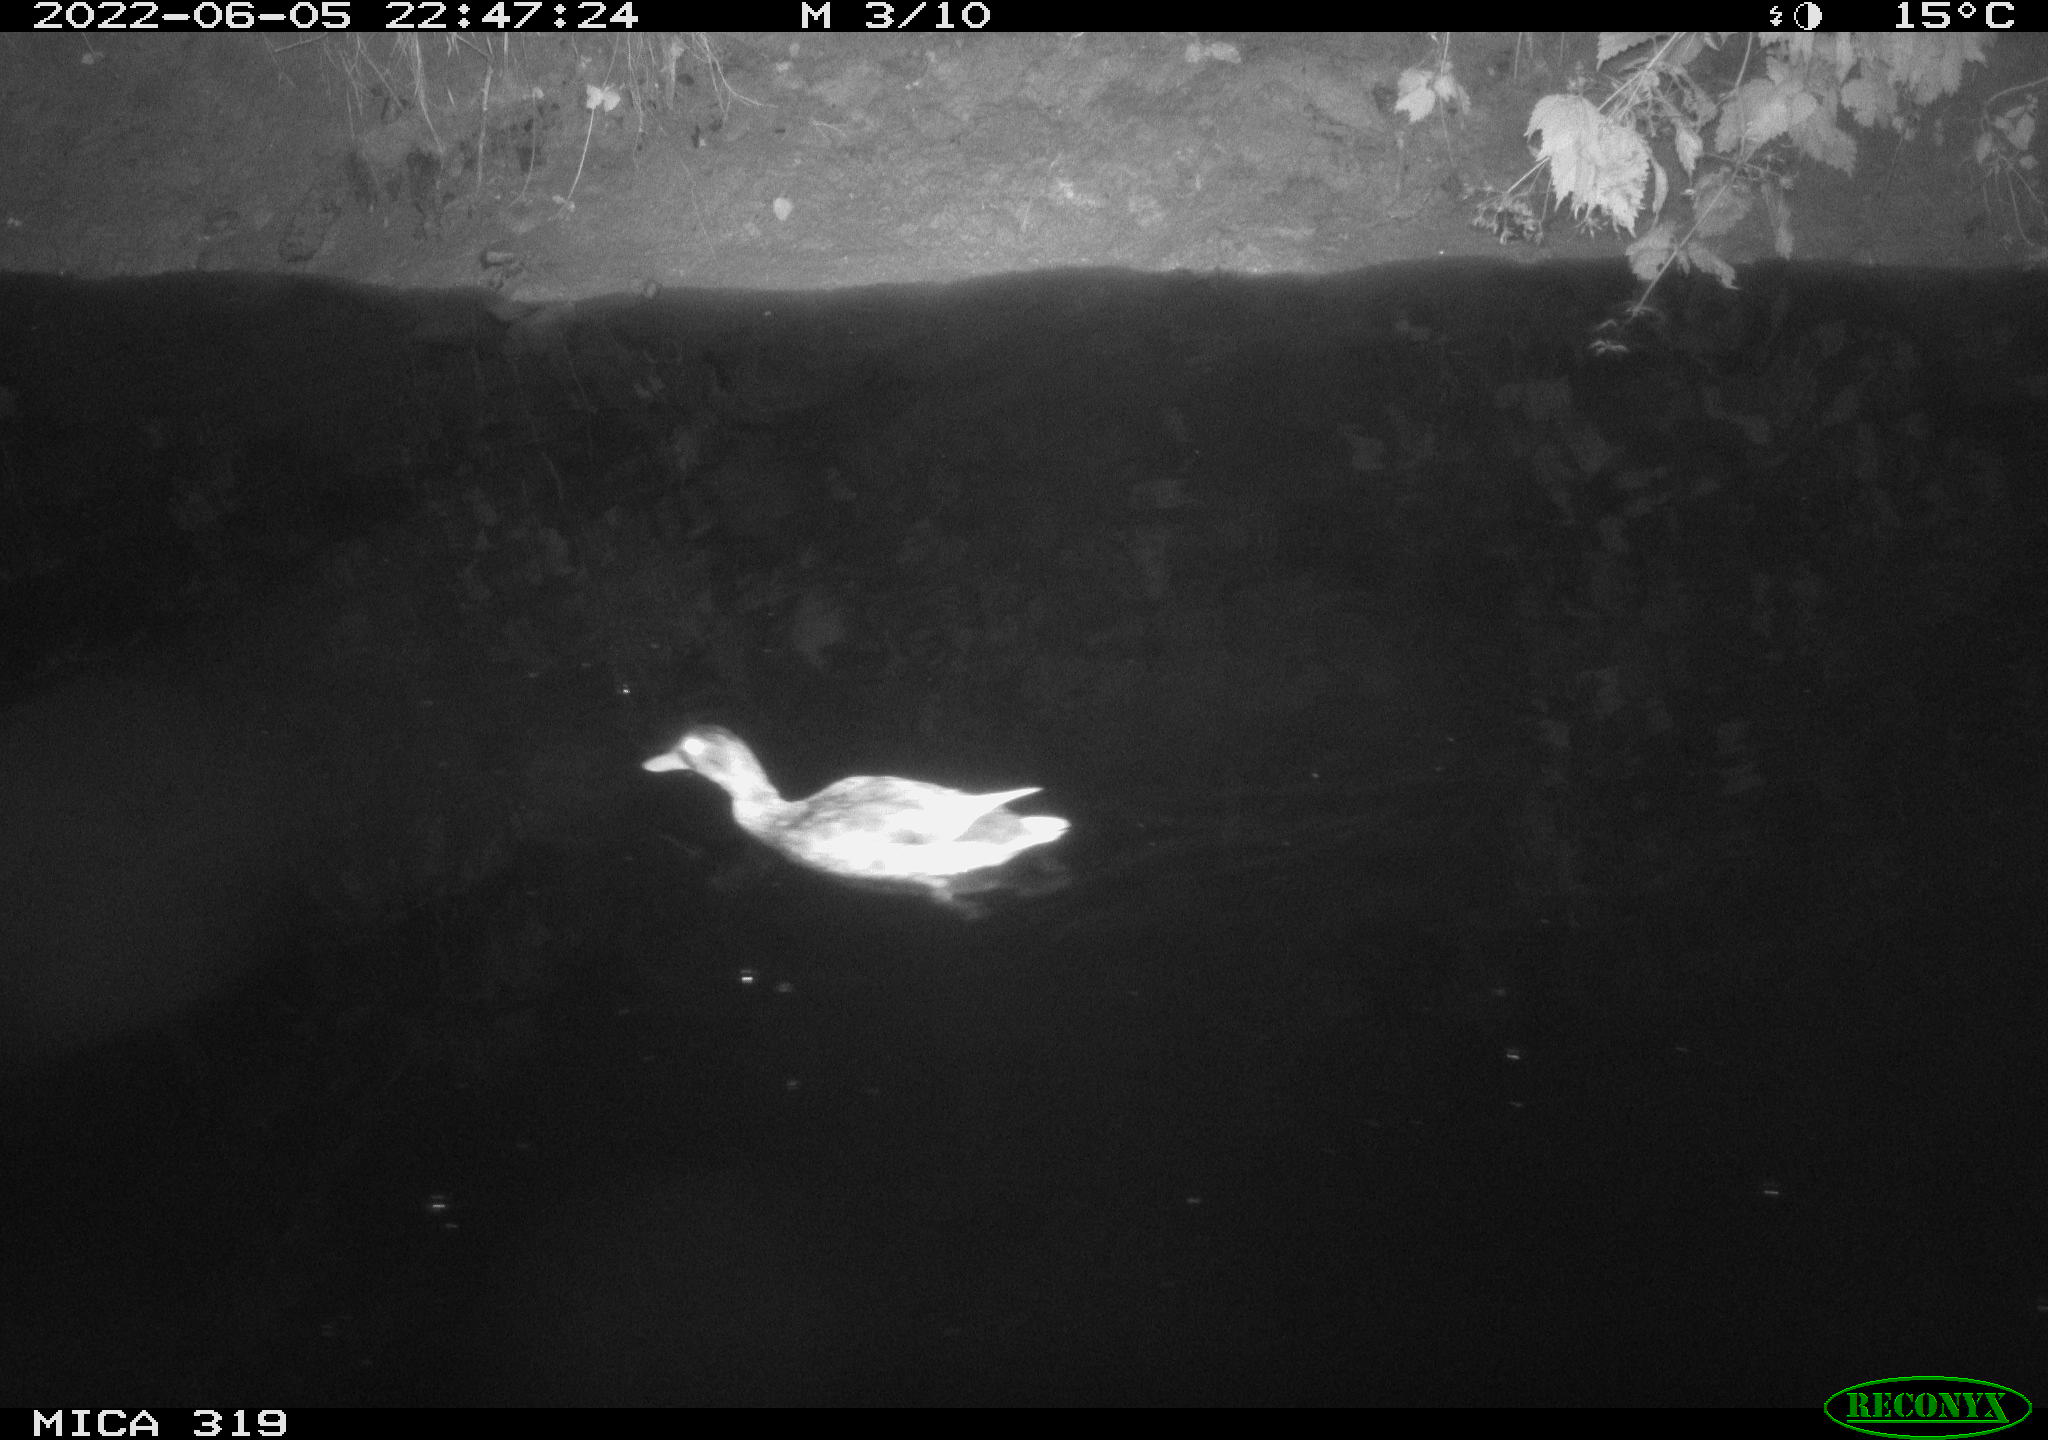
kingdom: Animalia
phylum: Chordata
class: Aves
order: Anseriformes
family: Anatidae
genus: Anas
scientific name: Anas
